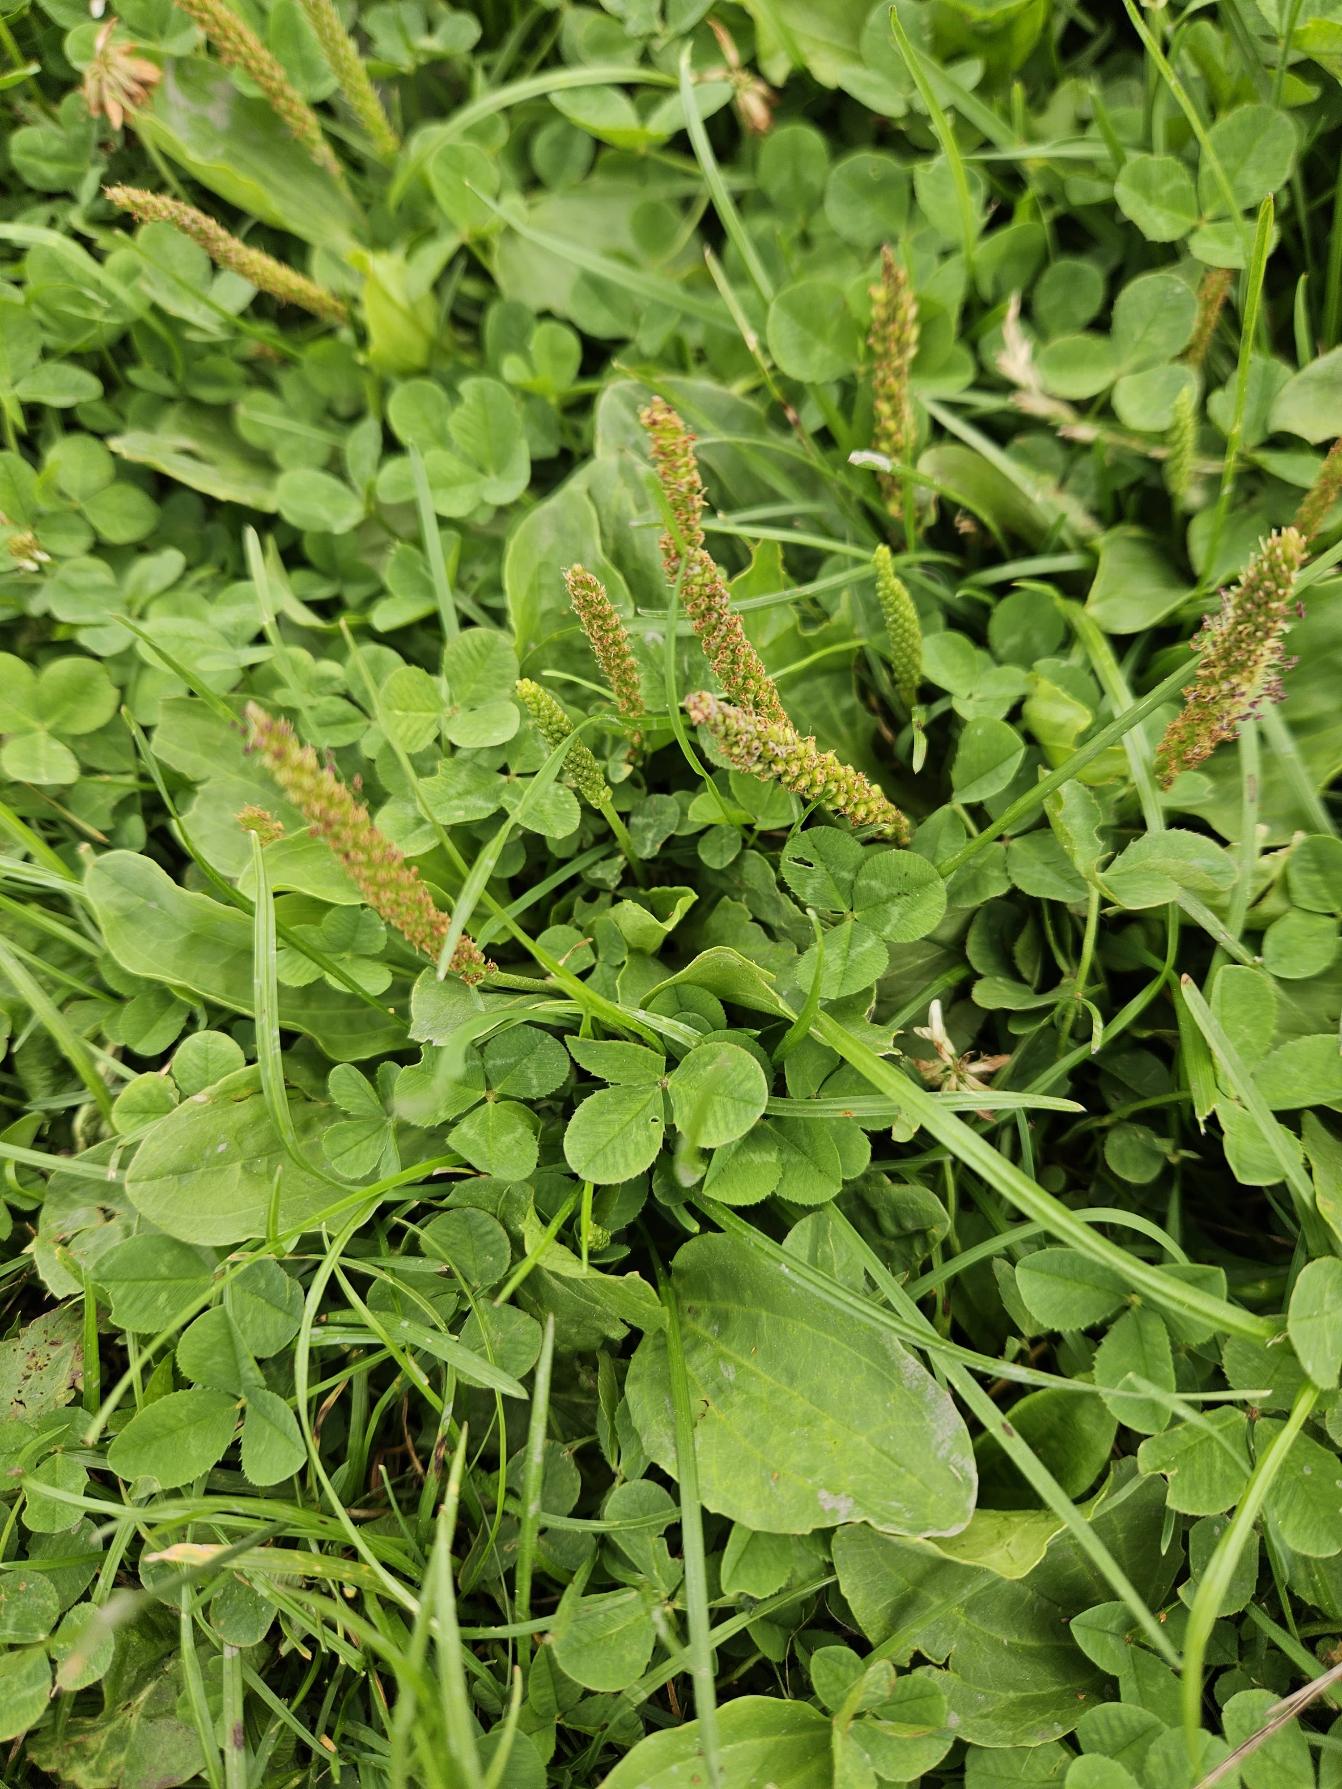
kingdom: Plantae
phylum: Tracheophyta
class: Magnoliopsida
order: Lamiales
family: Plantaginaceae
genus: Plantago
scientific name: Plantago major
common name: Glat vejbred
